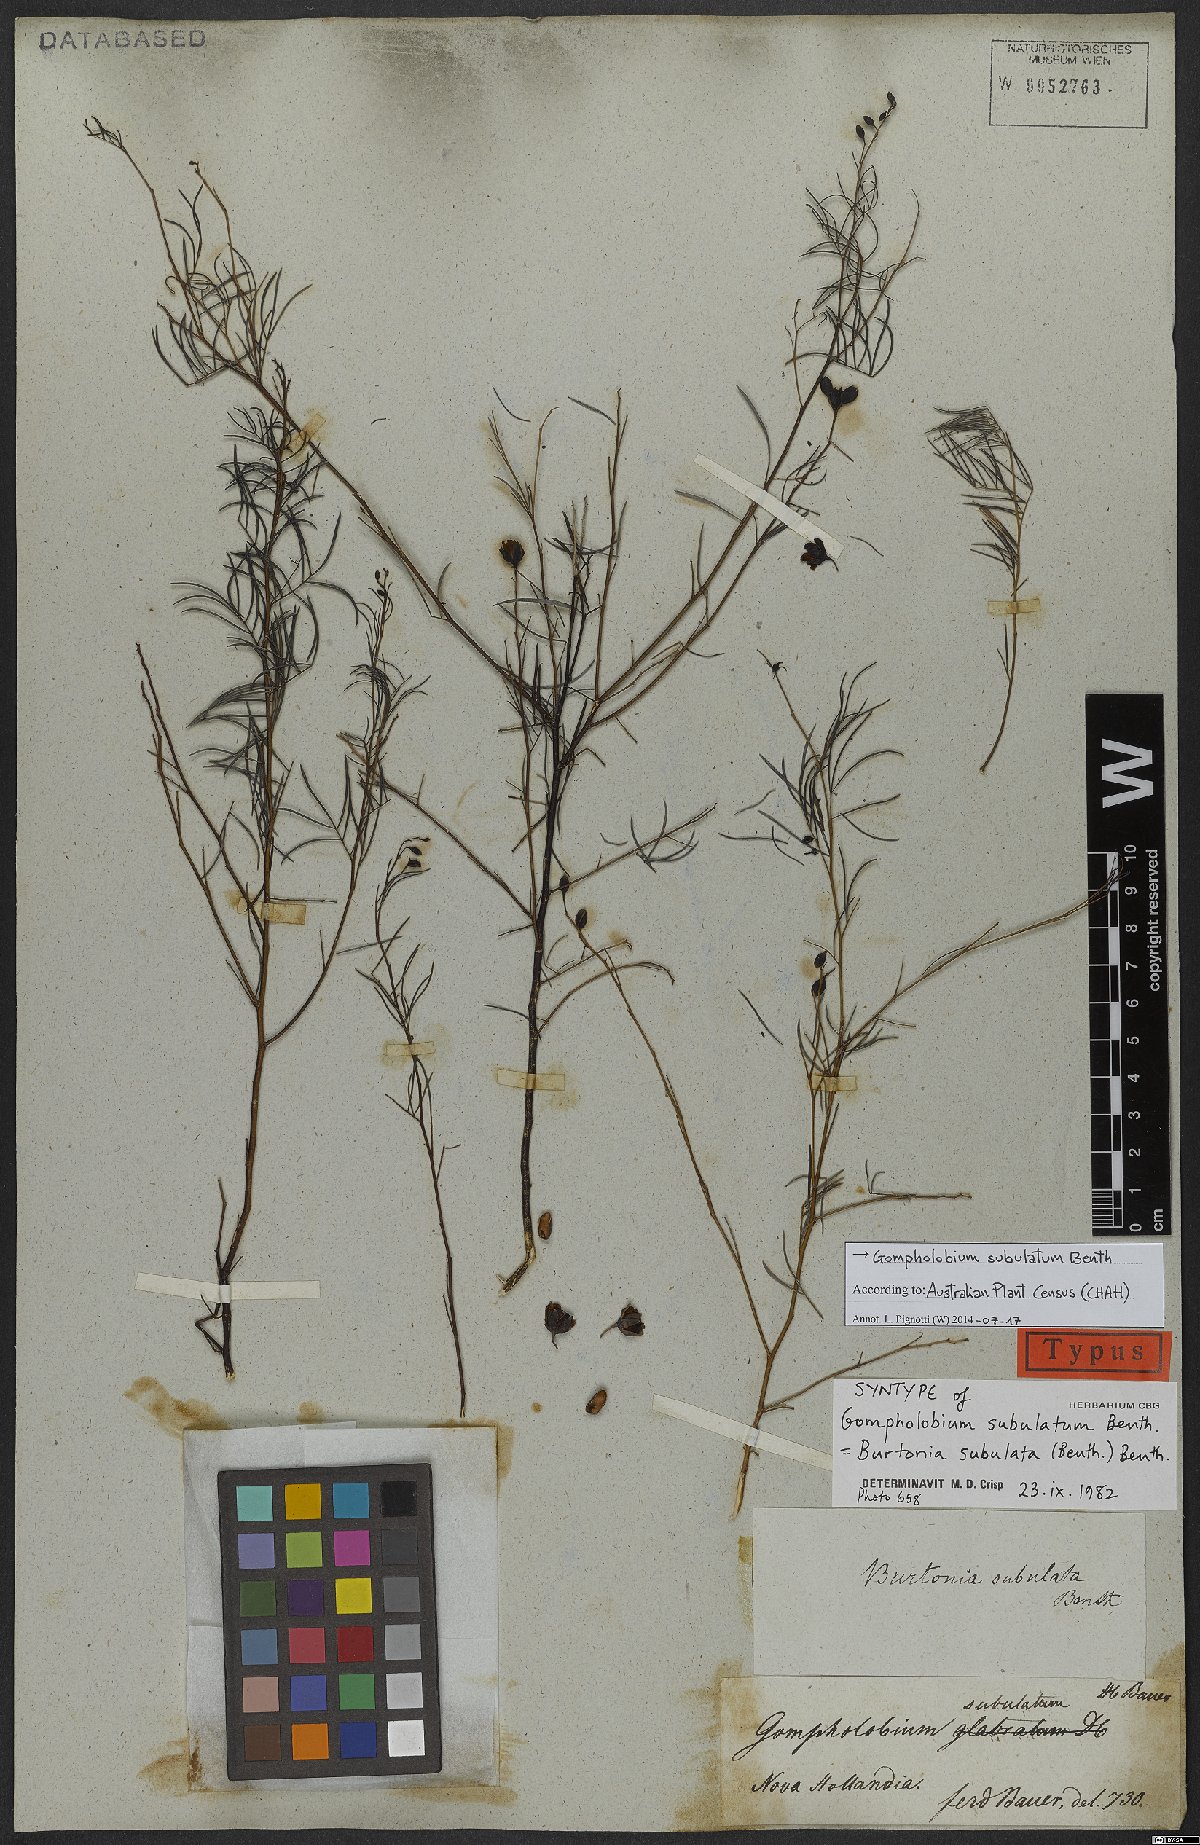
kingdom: Plantae
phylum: Tracheophyta
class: Magnoliopsida
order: Fabales
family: Fabaceae
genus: Gompholobium
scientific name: Gompholobium subulatum
